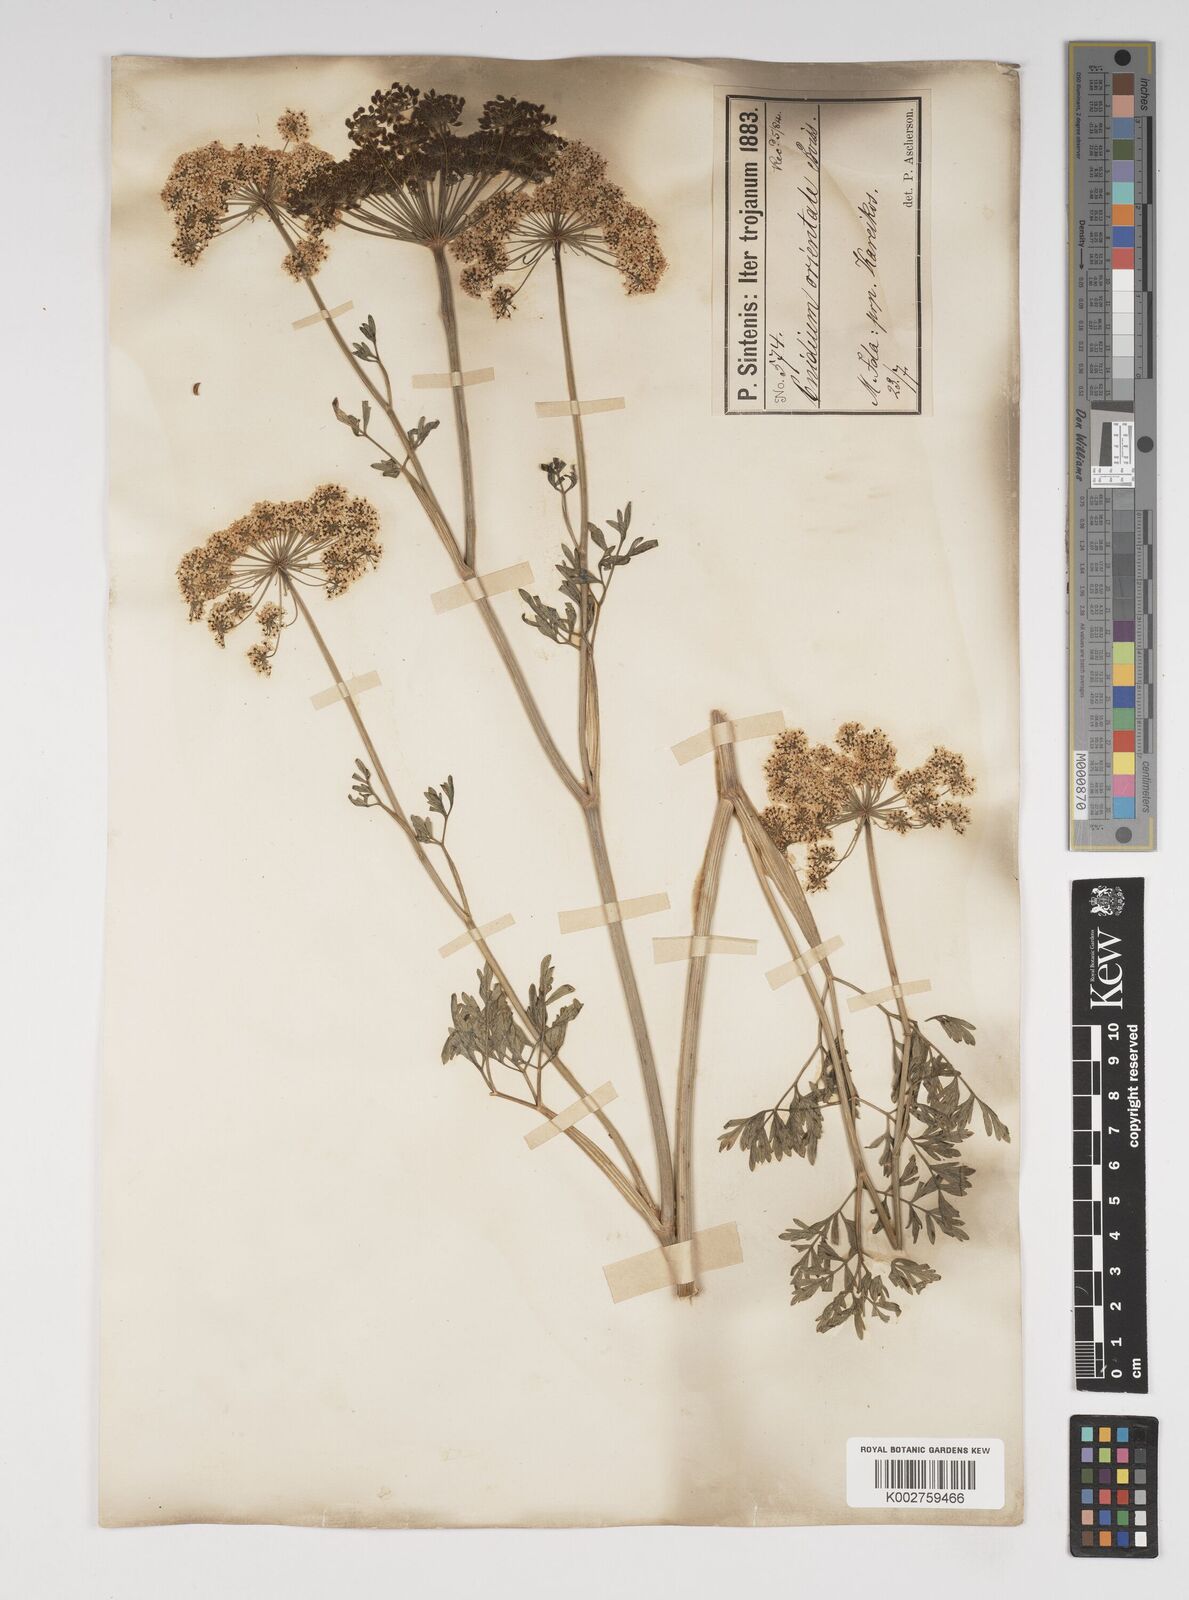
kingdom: Plantae
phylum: Tracheophyta
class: Magnoliopsida
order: Apiales
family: Apiaceae
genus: Katapsuxis
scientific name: Katapsuxis silaifolia
